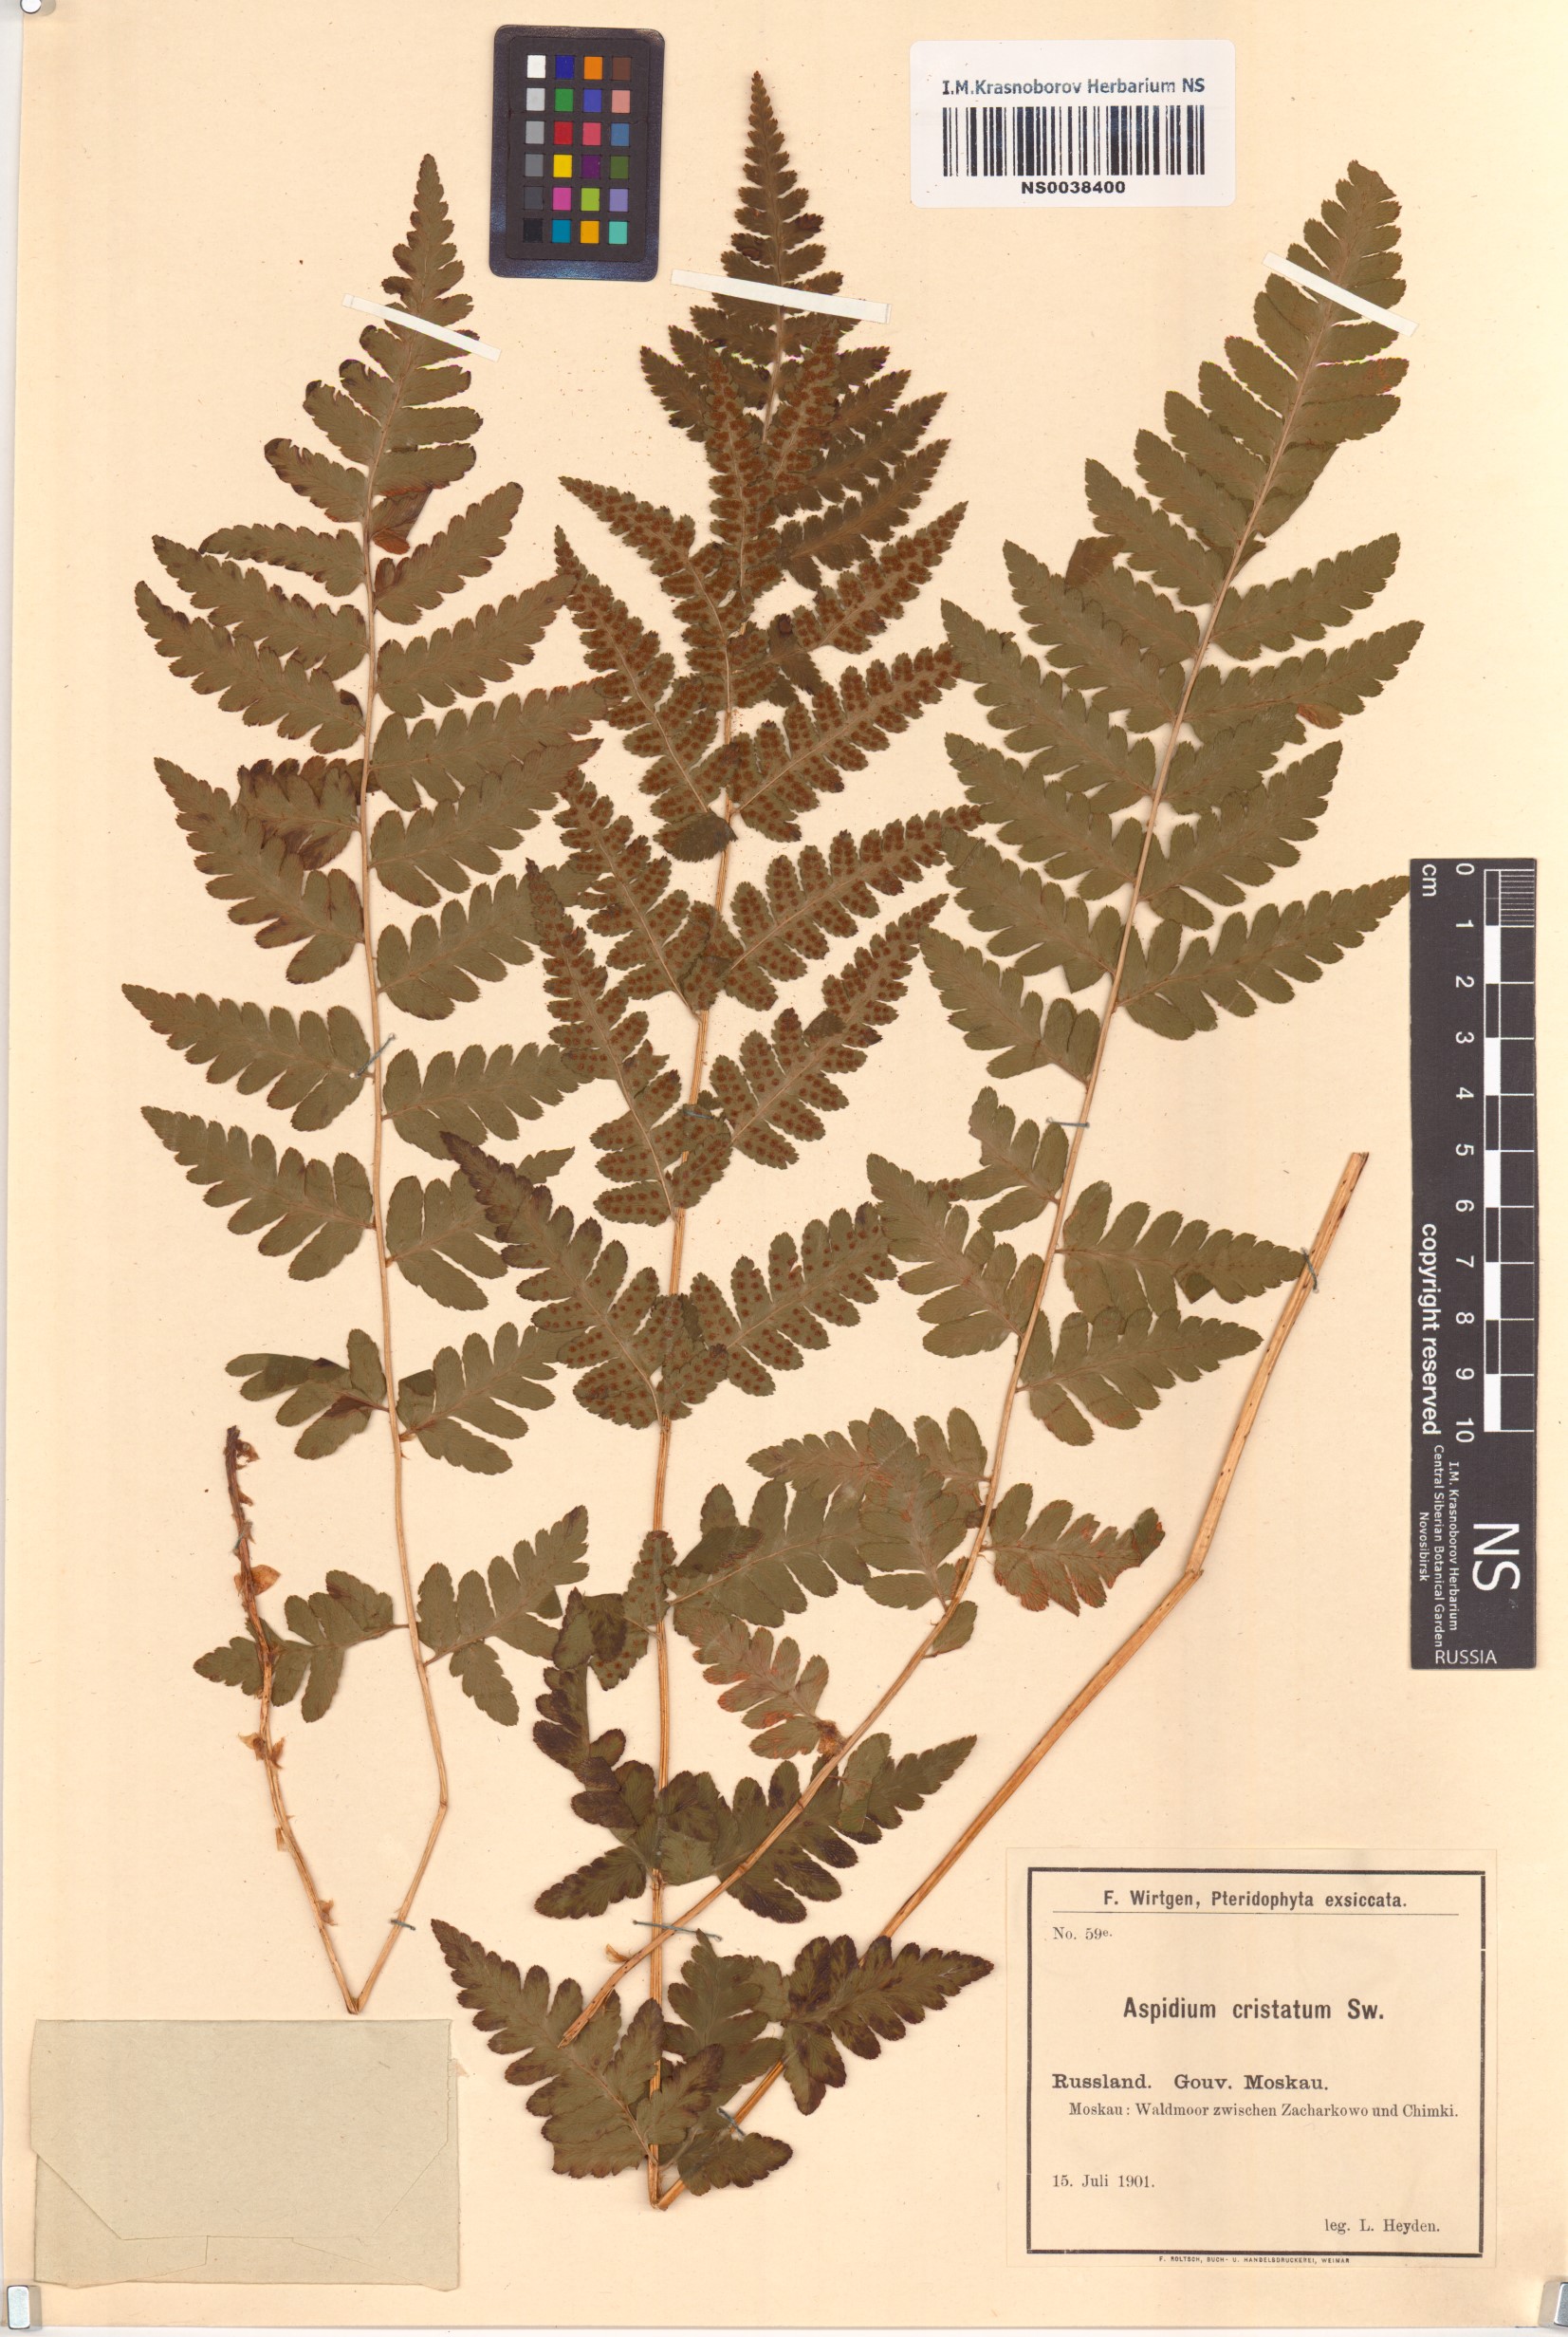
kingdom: Plantae
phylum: Tracheophyta
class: Polypodiopsida
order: Polypodiales
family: Dryopteridaceae
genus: Dryopteris
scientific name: Dryopteris cristata
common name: Crested wood fern
